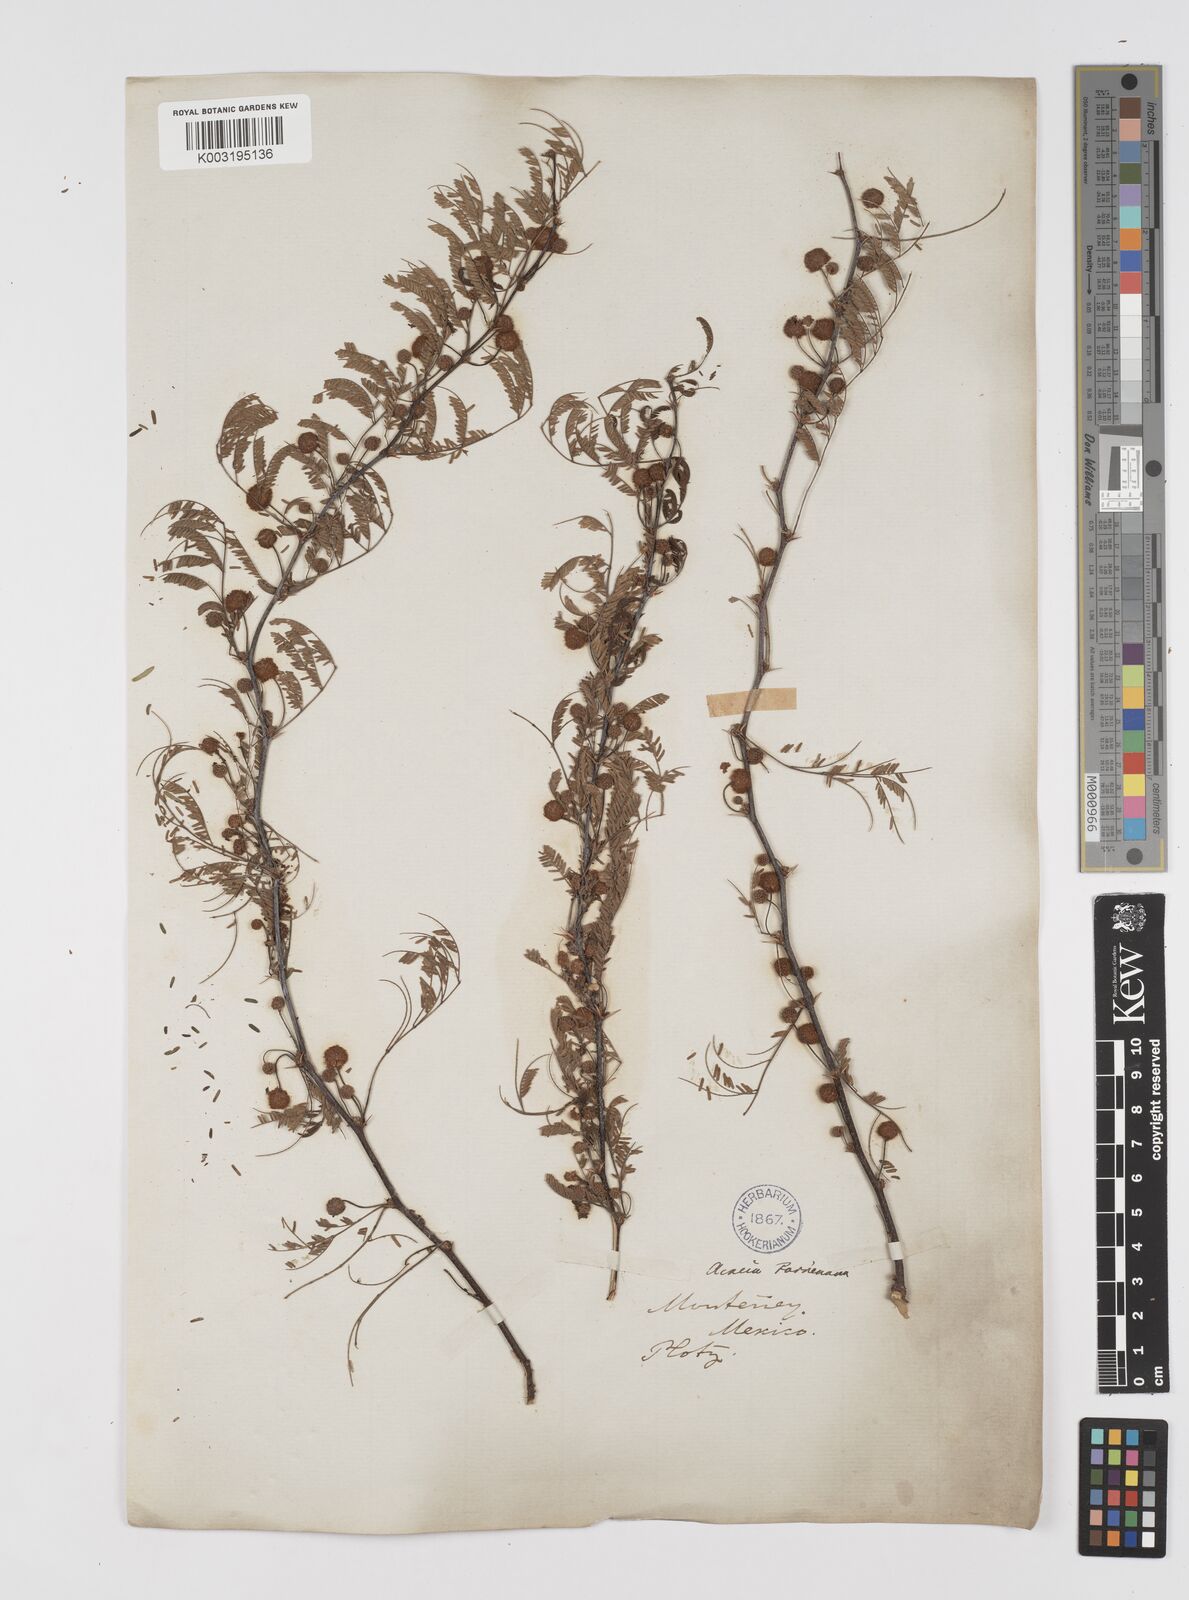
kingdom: Plantae
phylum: Tracheophyta
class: Magnoliopsida
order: Fabales
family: Fabaceae
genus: Vachellia
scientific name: Vachellia farnesiana
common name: Sweet acacia
